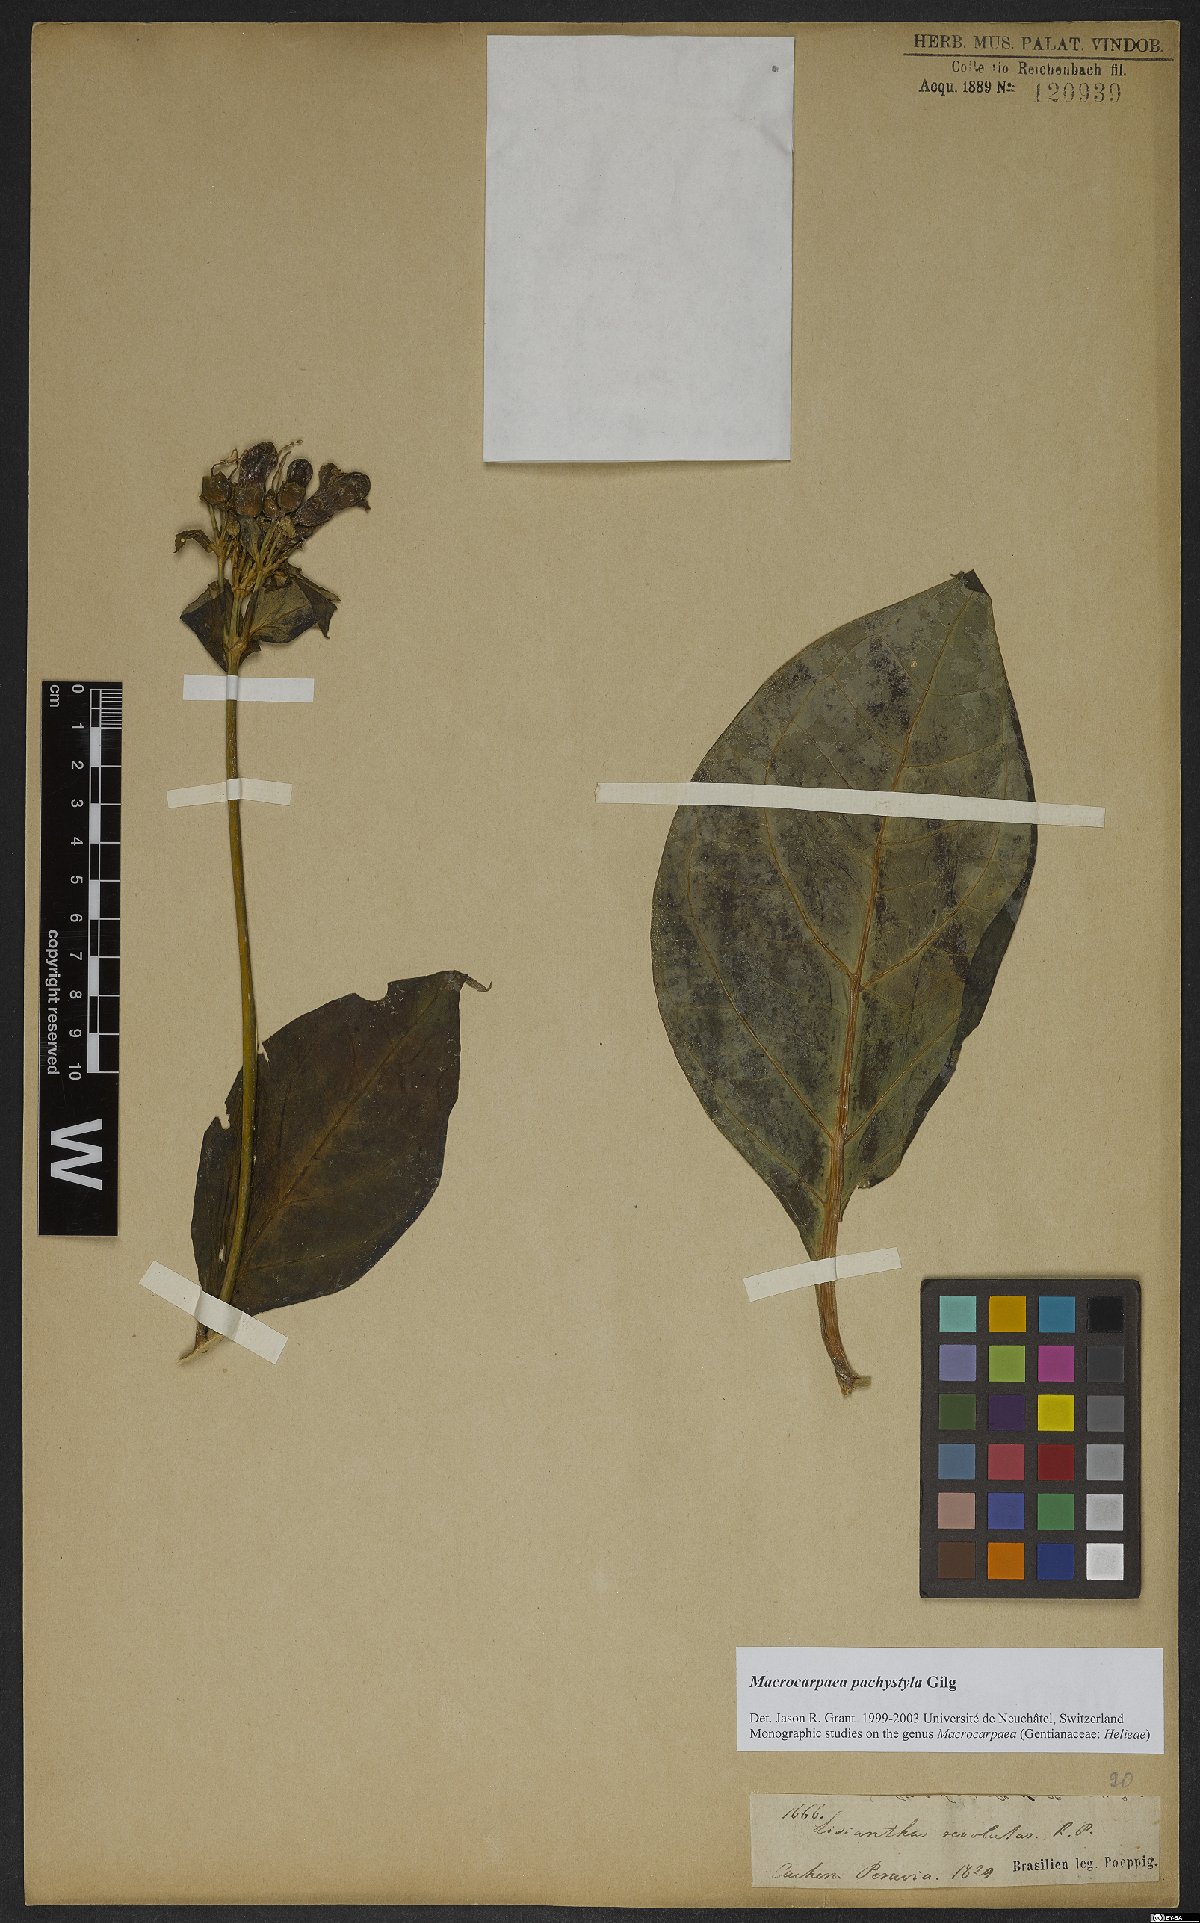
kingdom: Plantae
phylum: Tracheophyta
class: Magnoliopsida
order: Gentianales
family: Gentianaceae
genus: Macrocarpaea
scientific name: Macrocarpaea pachystyla
